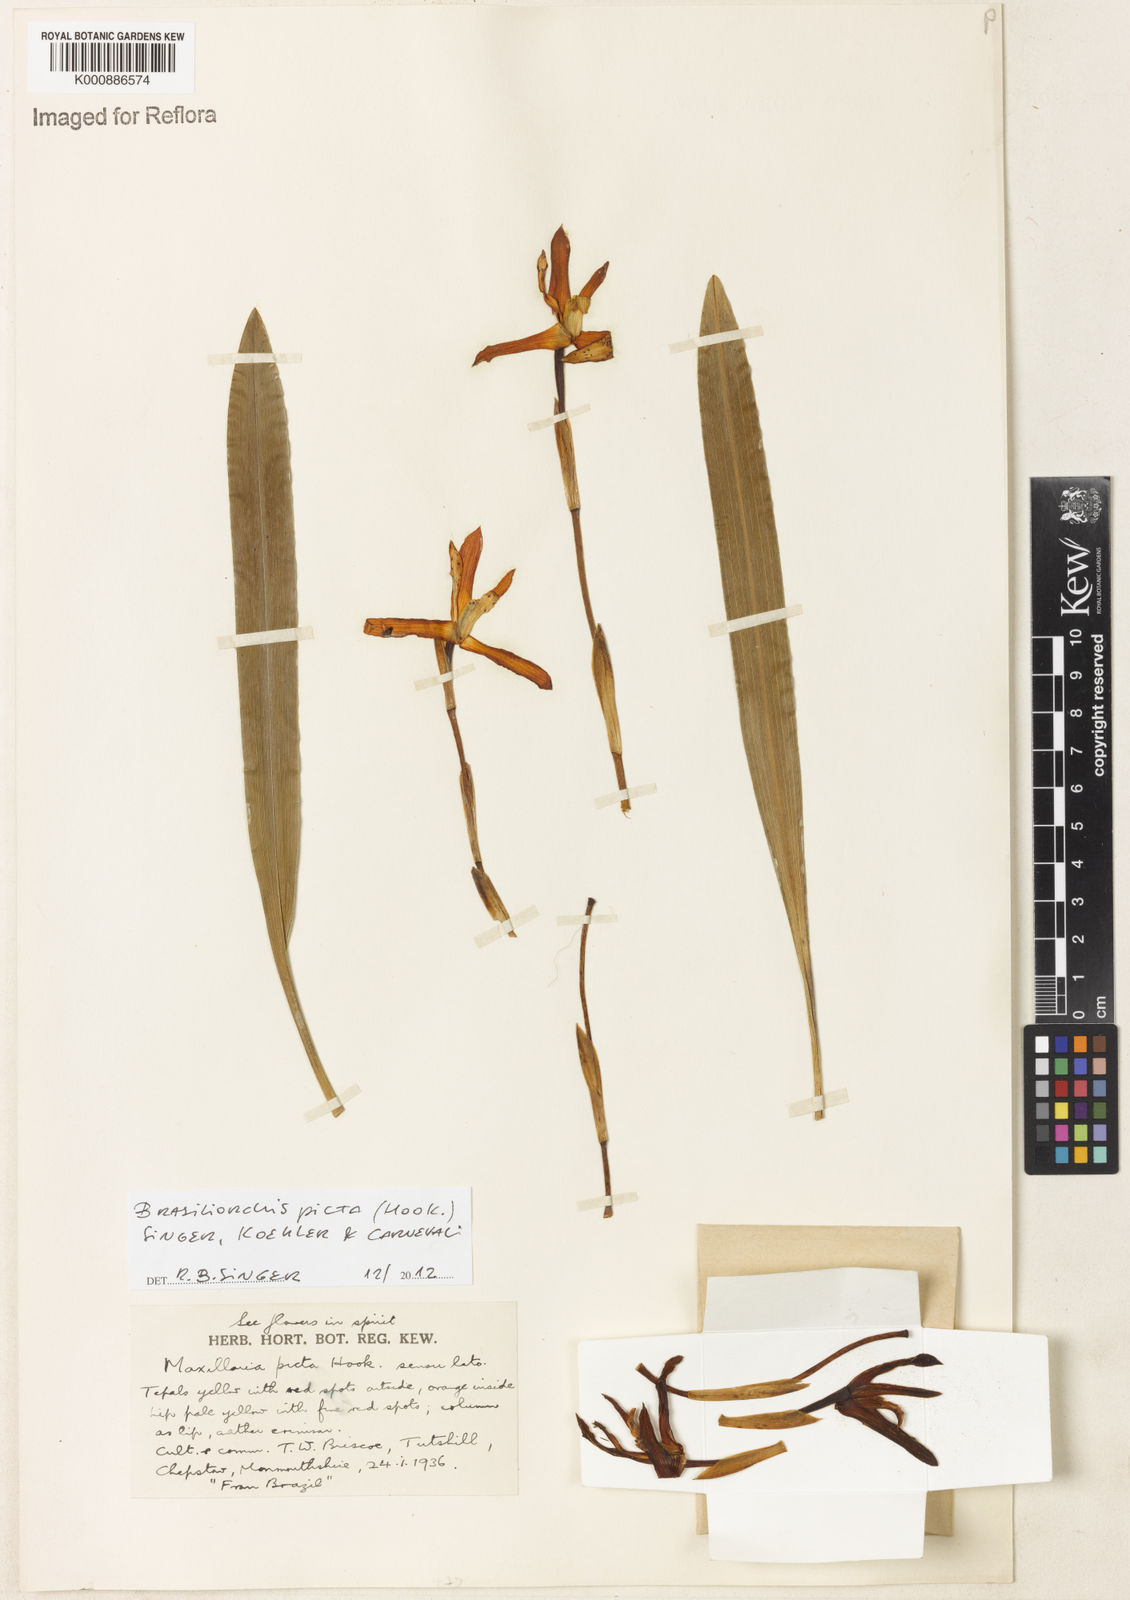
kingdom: Plantae
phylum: Tracheophyta
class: Liliopsida
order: Asparagales
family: Orchidaceae
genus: Maxillaria
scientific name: Maxillaria
